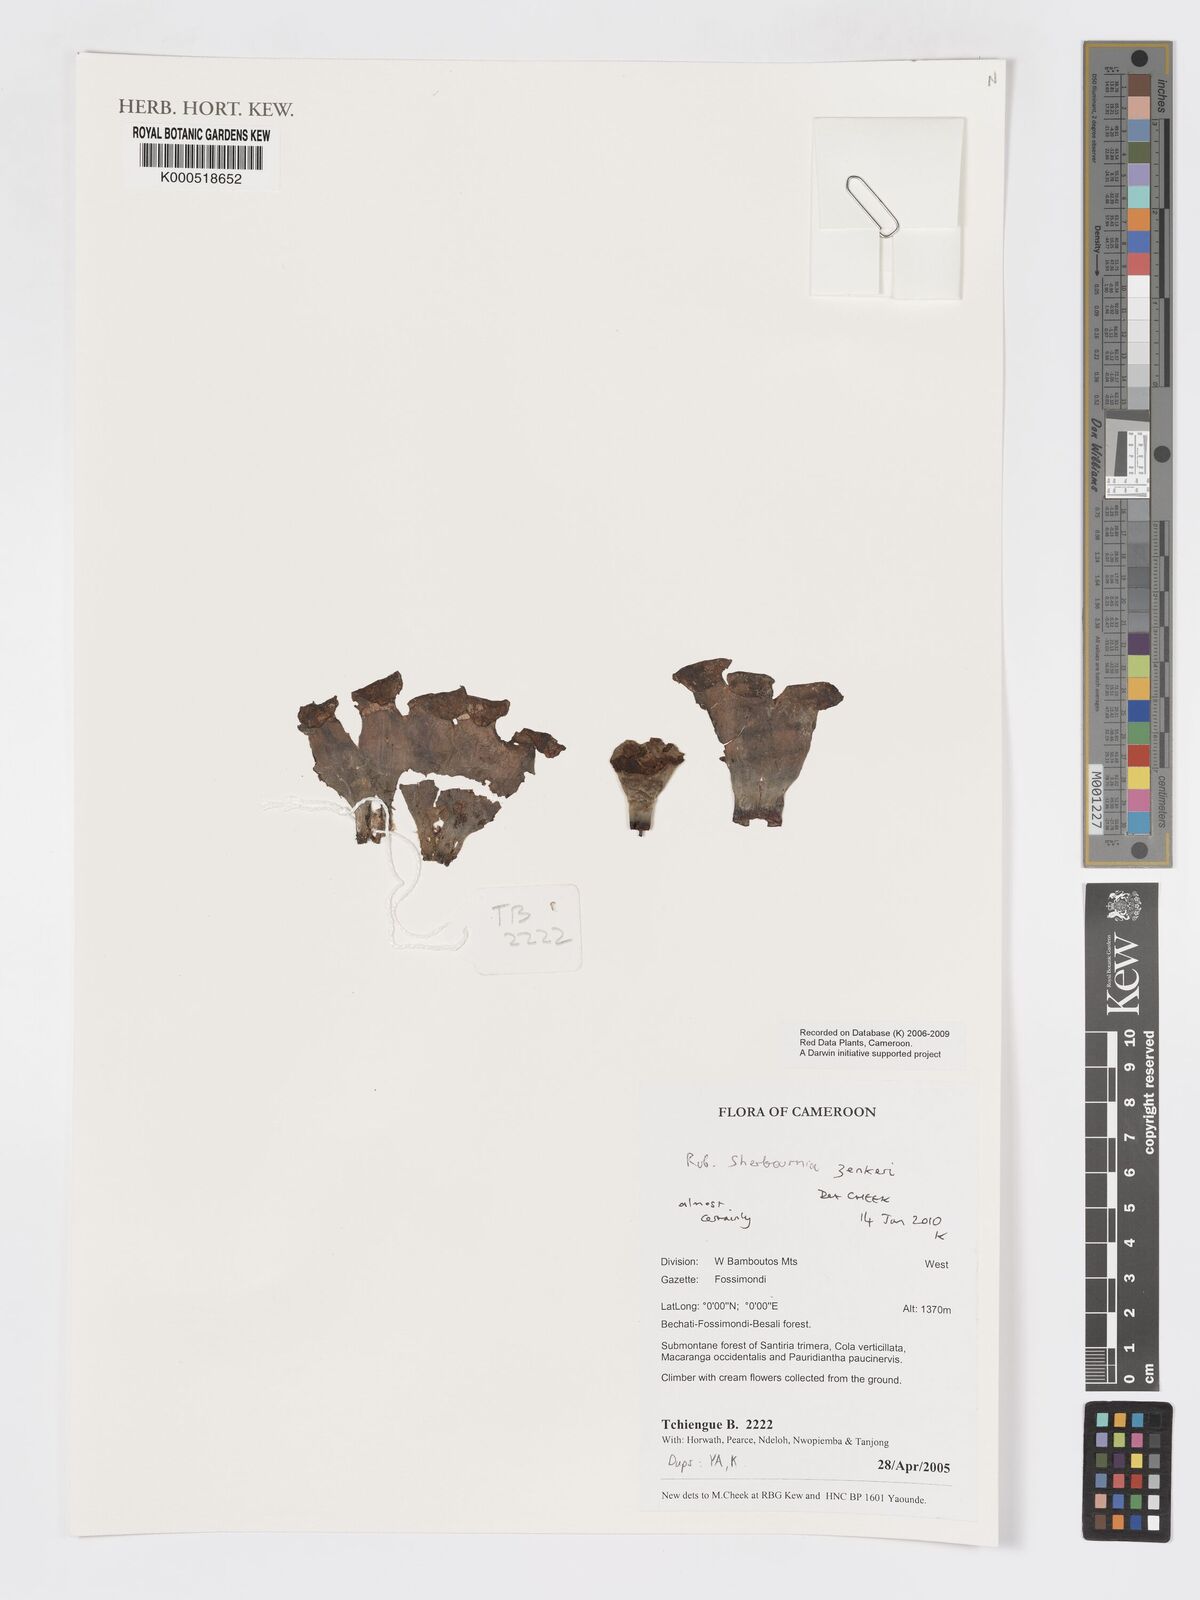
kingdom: Plantae
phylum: Tracheophyta
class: Magnoliopsida
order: Gentianales
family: Rubiaceae
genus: Sherbournia
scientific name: Sherbournia zenkeri
